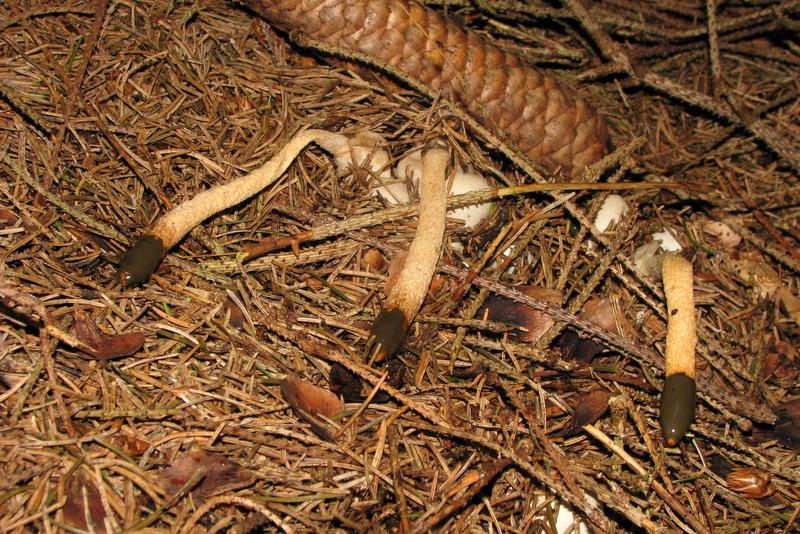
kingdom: Fungi
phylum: Basidiomycota
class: Agaricomycetes
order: Phallales
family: Phallaceae
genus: Mutinus
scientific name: Mutinus caninus
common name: hunde-stinksvamp
